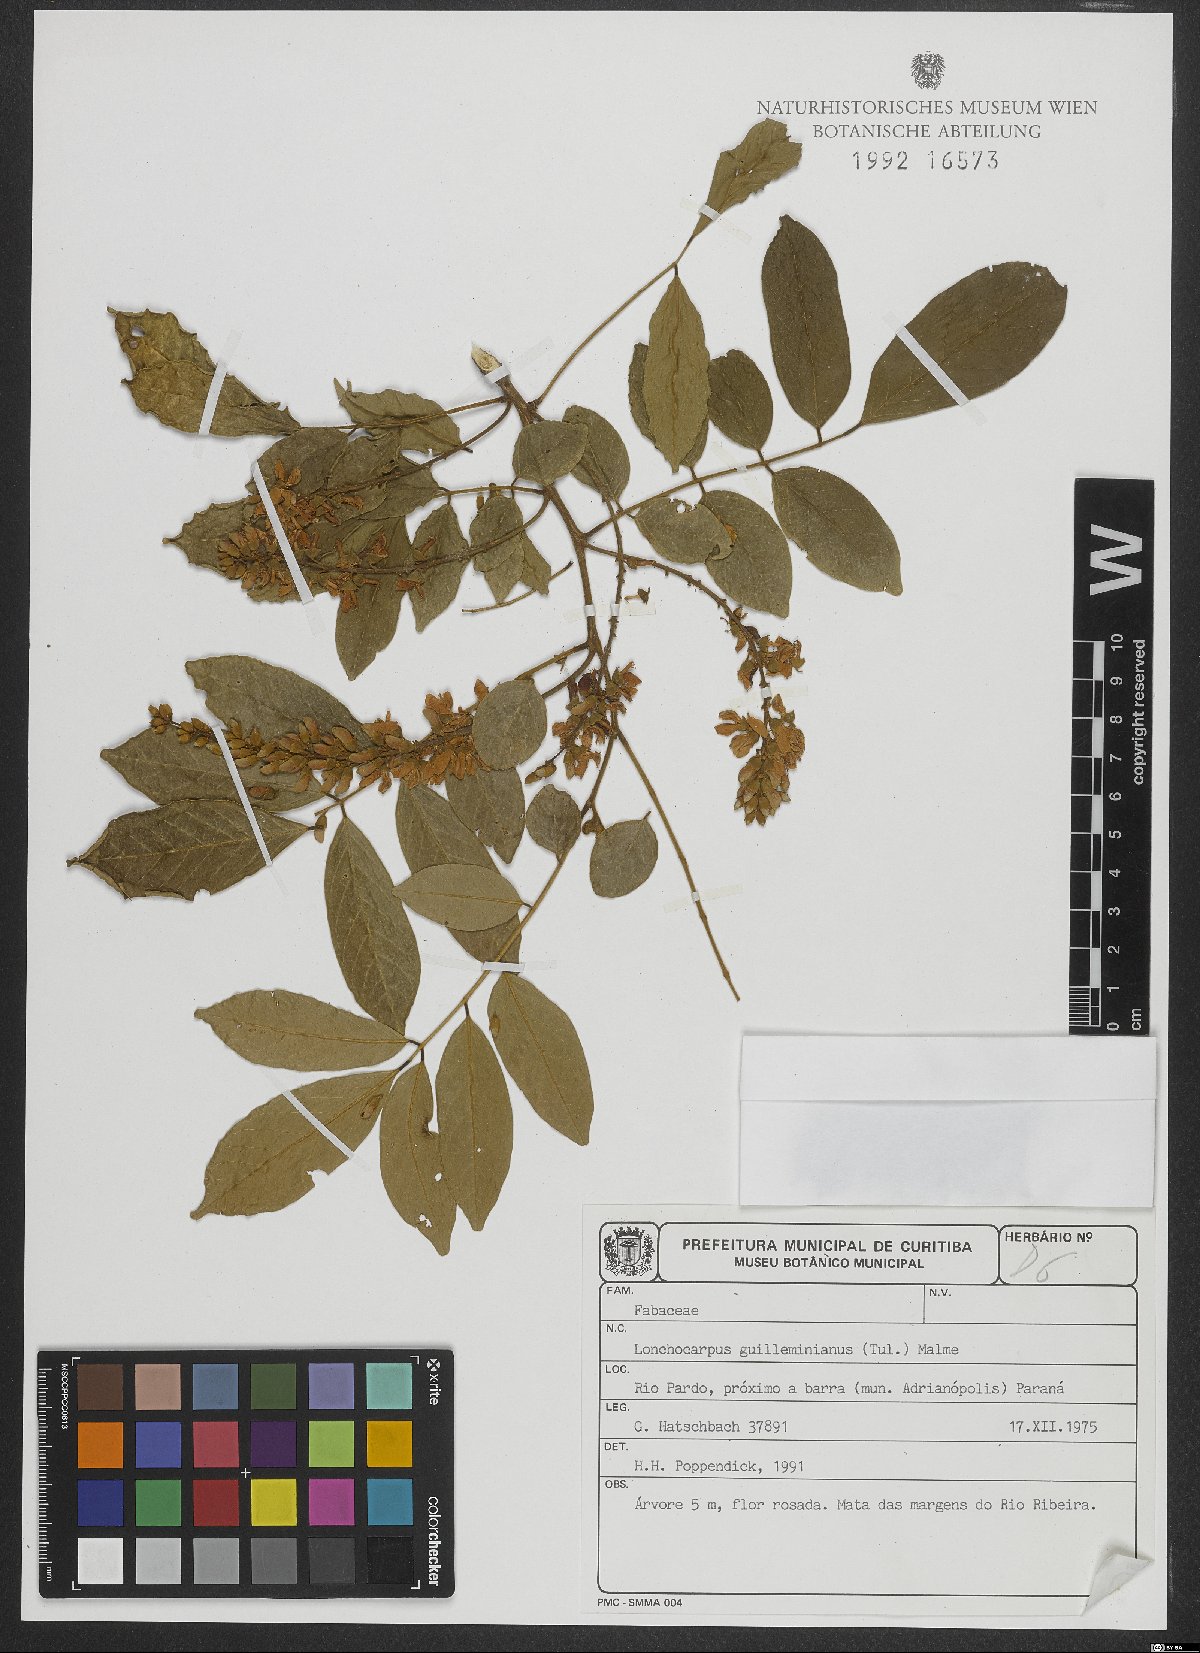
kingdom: Plantae
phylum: Tracheophyta
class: Magnoliopsida
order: Fabales
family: Fabaceae
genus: Lonchocarpus
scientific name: Lonchocarpus cultratus
